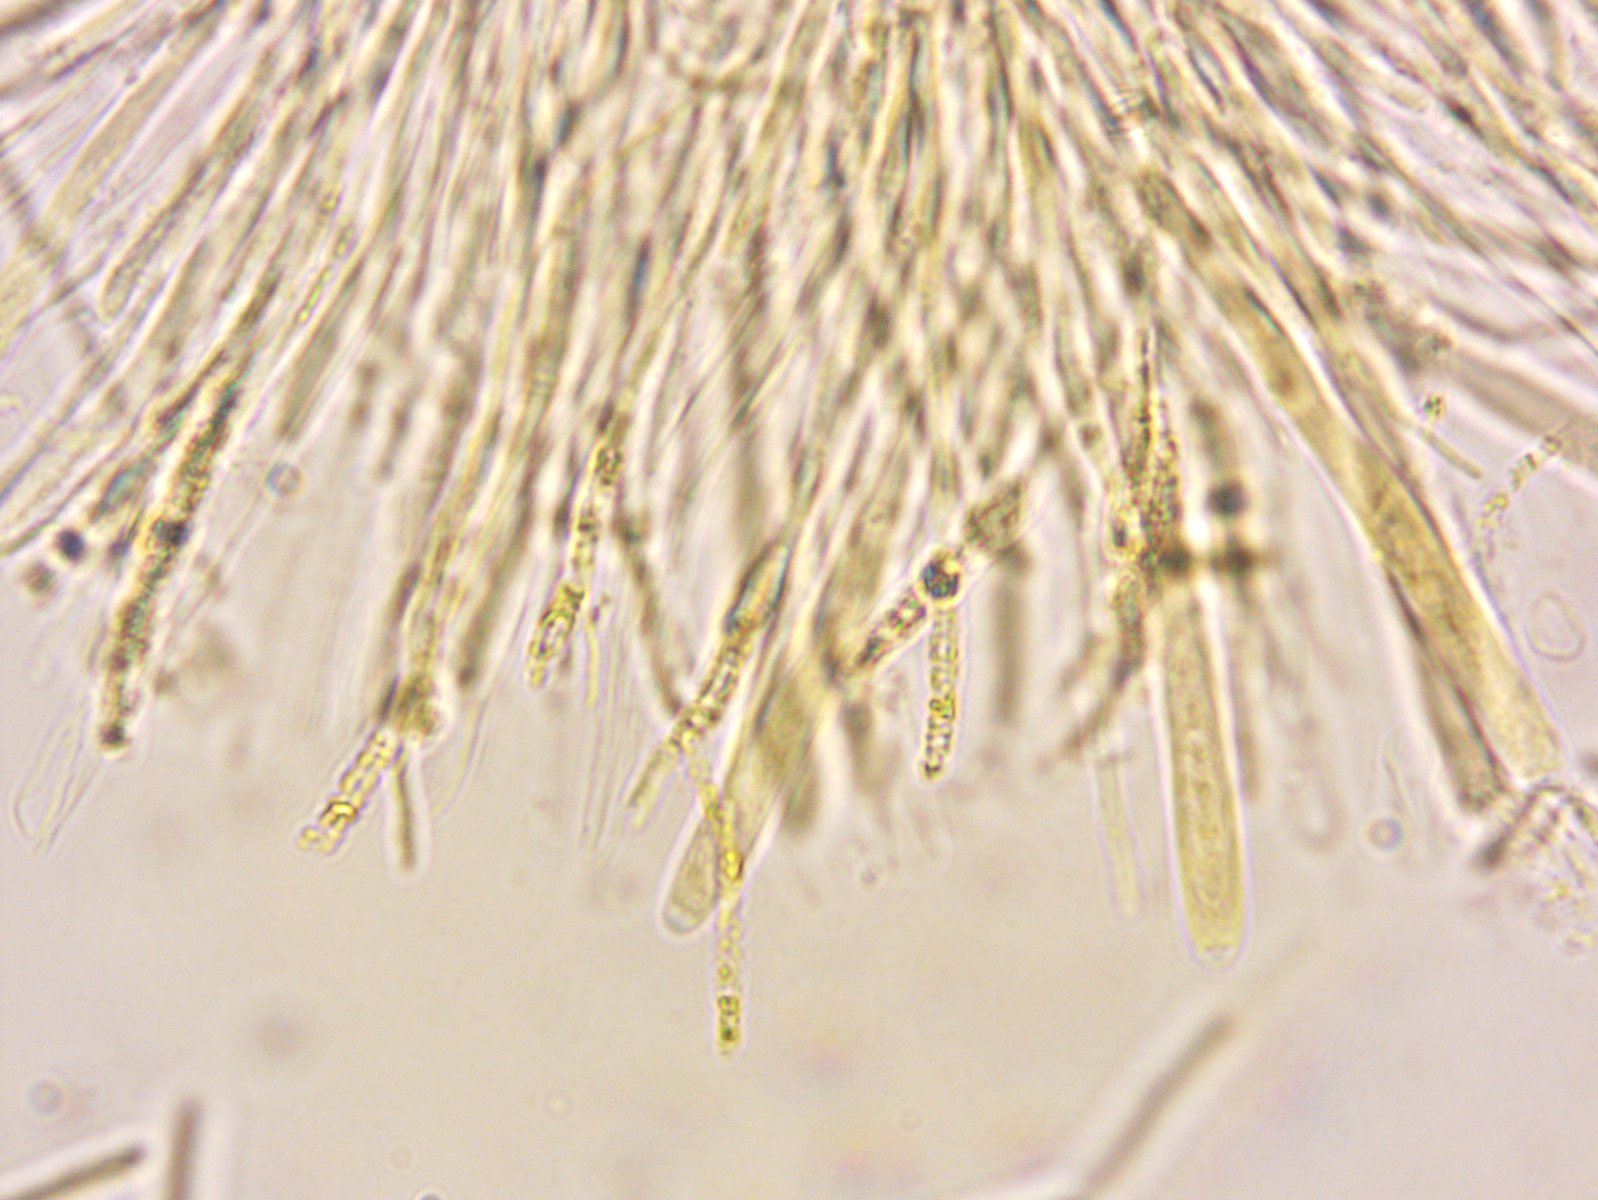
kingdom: Fungi
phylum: Ascomycota
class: Leotiomycetes
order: Helotiales
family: Helotiaceae
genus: Bisporella
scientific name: Bisporella subpallida
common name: lys snitskive
